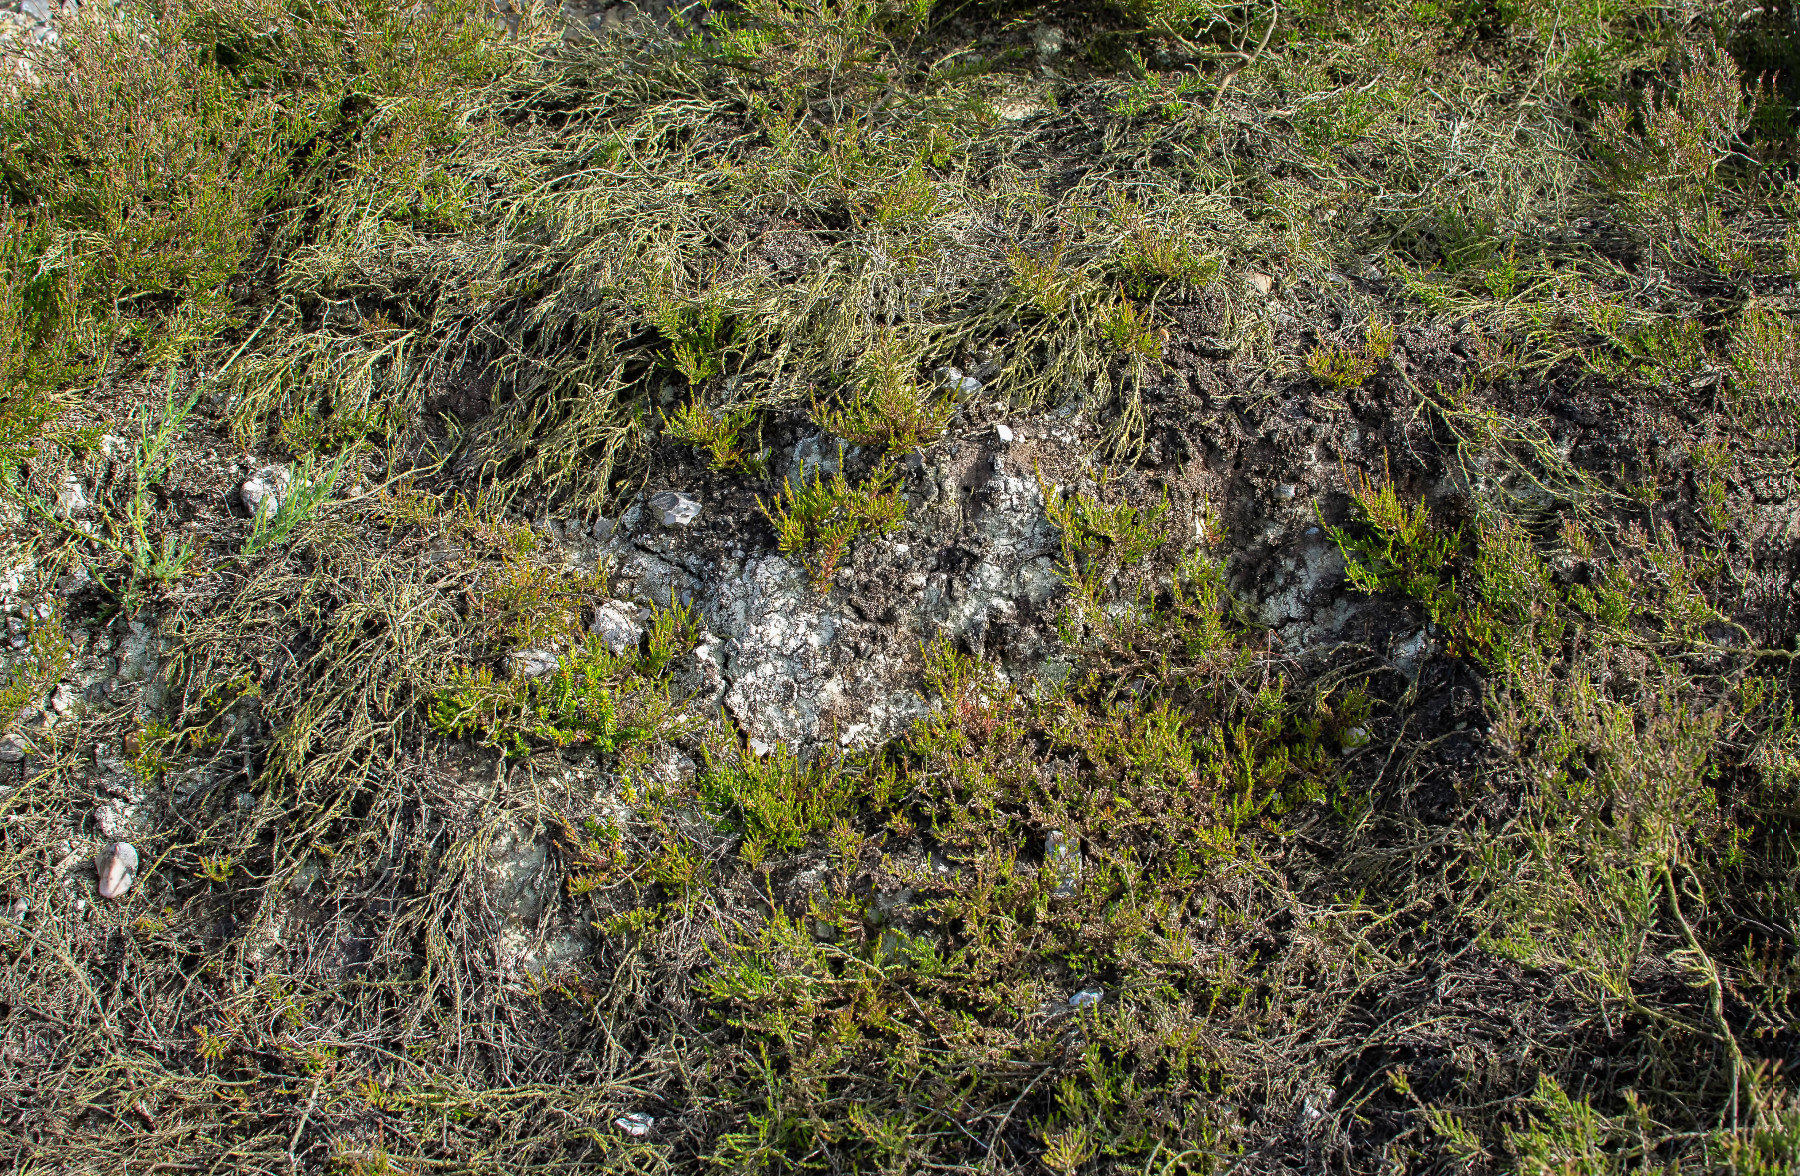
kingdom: Fungi
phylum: Ascomycota
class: Lecanoromycetes
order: Pertusariales
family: Icmadophilaceae
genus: Dibaeis
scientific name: Dibaeis baeomyces
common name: rosenrød stilav
